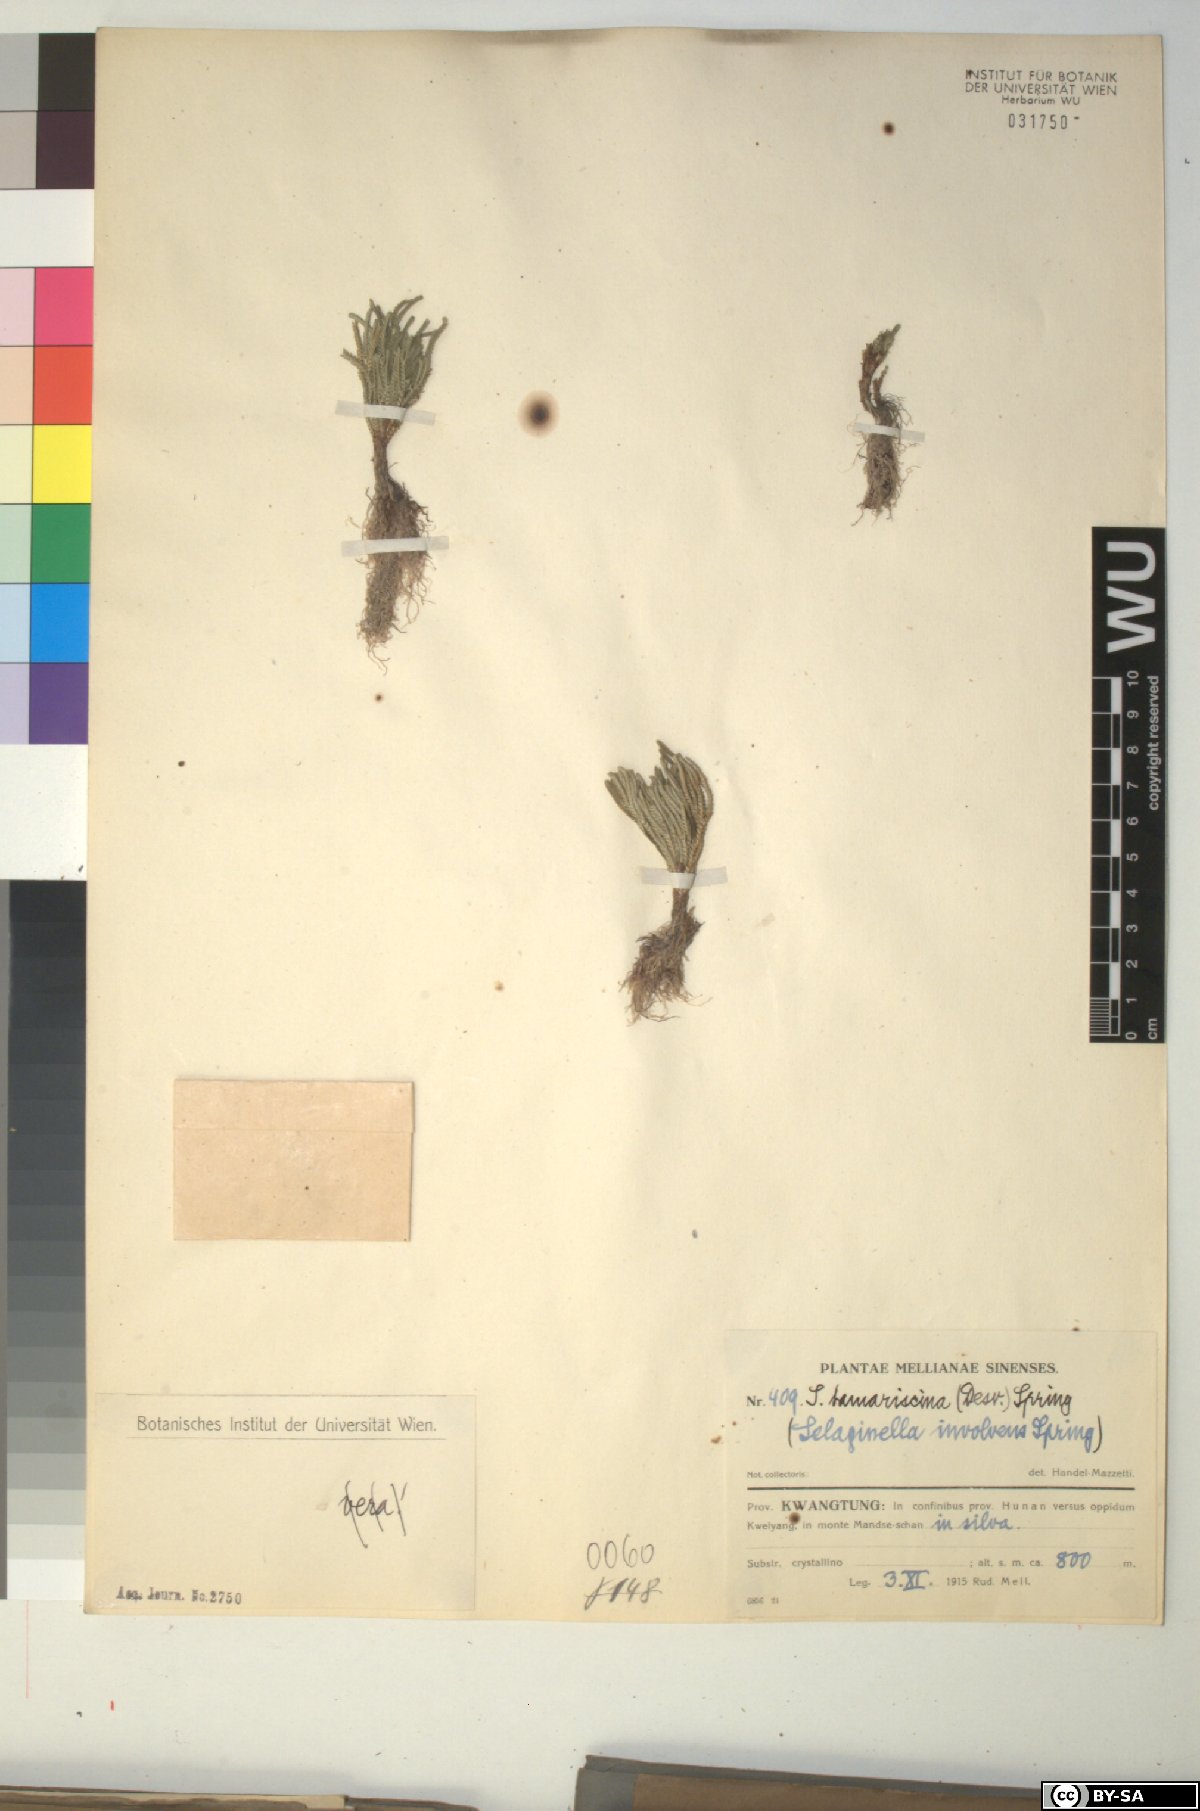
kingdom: Plantae
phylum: Tracheophyta
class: Lycopodiopsida
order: Selaginellales
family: Selaginellaceae
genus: Selaginella
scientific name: Selaginella tamariscina
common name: Little-club-moss
